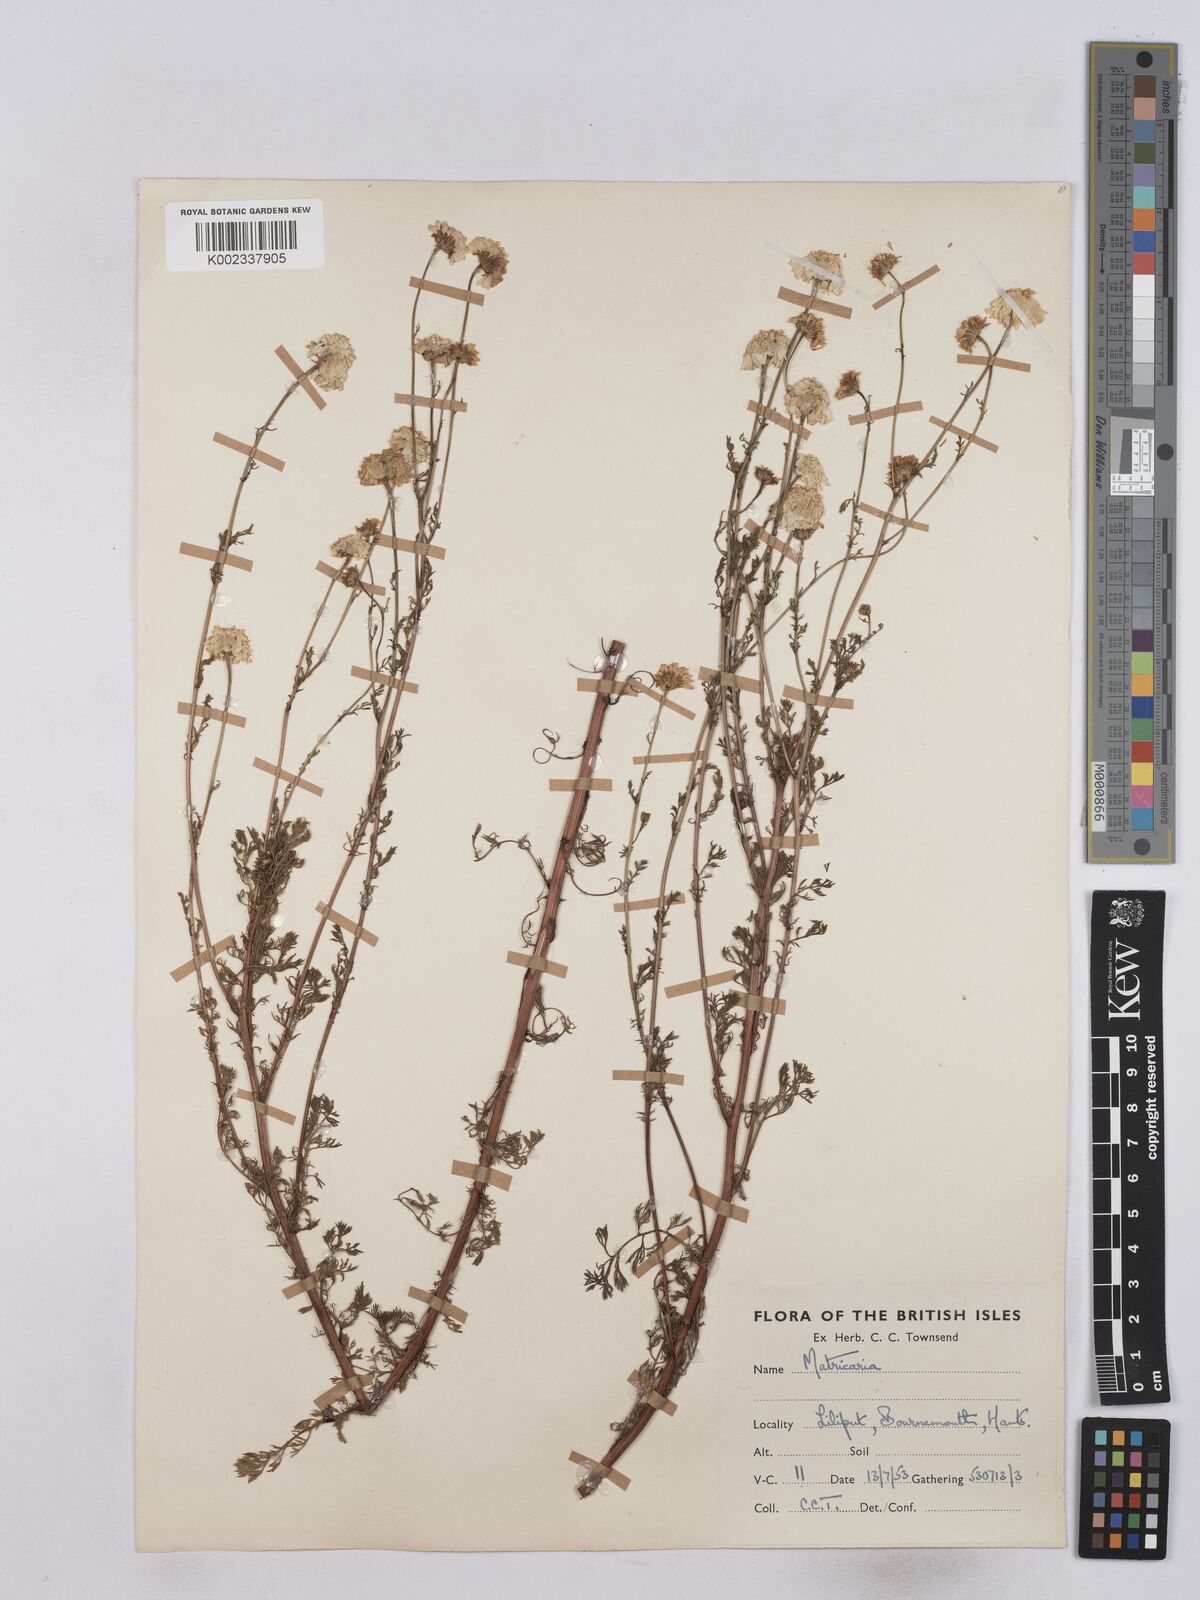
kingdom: Plantae
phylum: Tracheophyta
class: Magnoliopsida
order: Asterales
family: Asteraceae
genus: Matricaria
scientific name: Matricaria discoidea
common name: Disc mayweed
